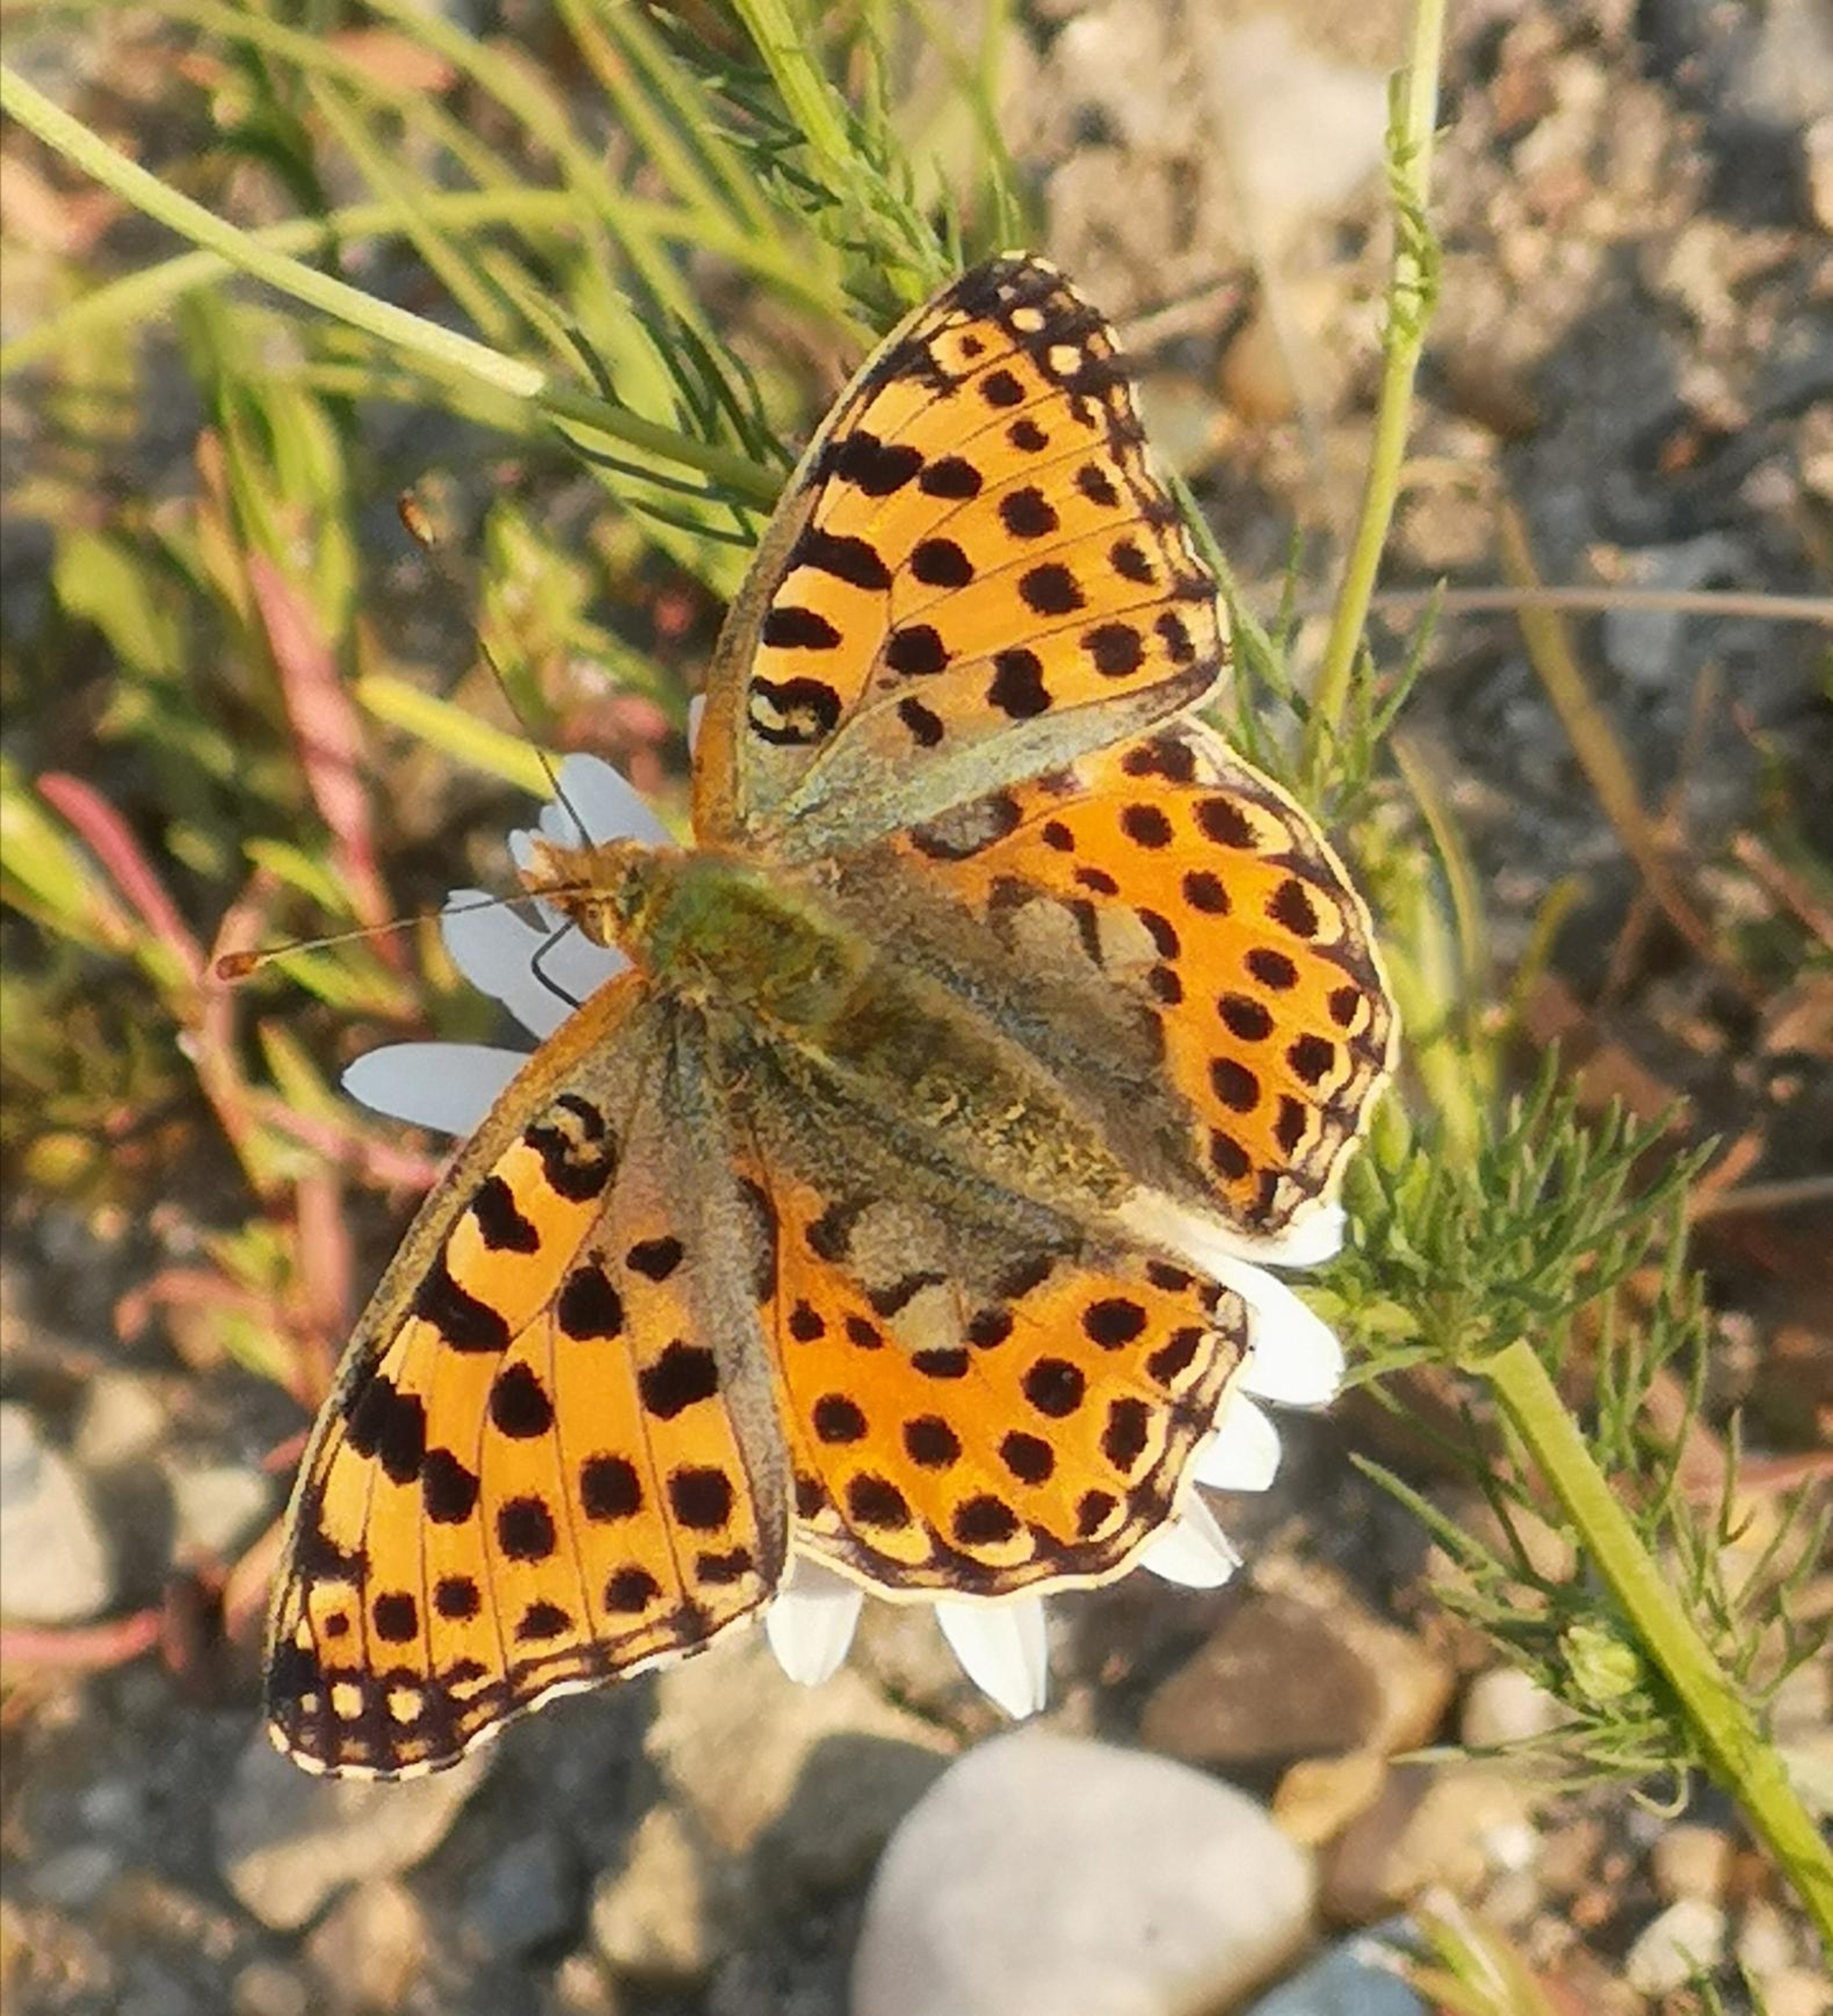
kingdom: Animalia
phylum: Arthropoda
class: Insecta
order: Lepidoptera
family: Nymphalidae
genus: Issoria
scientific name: Issoria lathonia
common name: Storplettet perlemorsommerfugl
